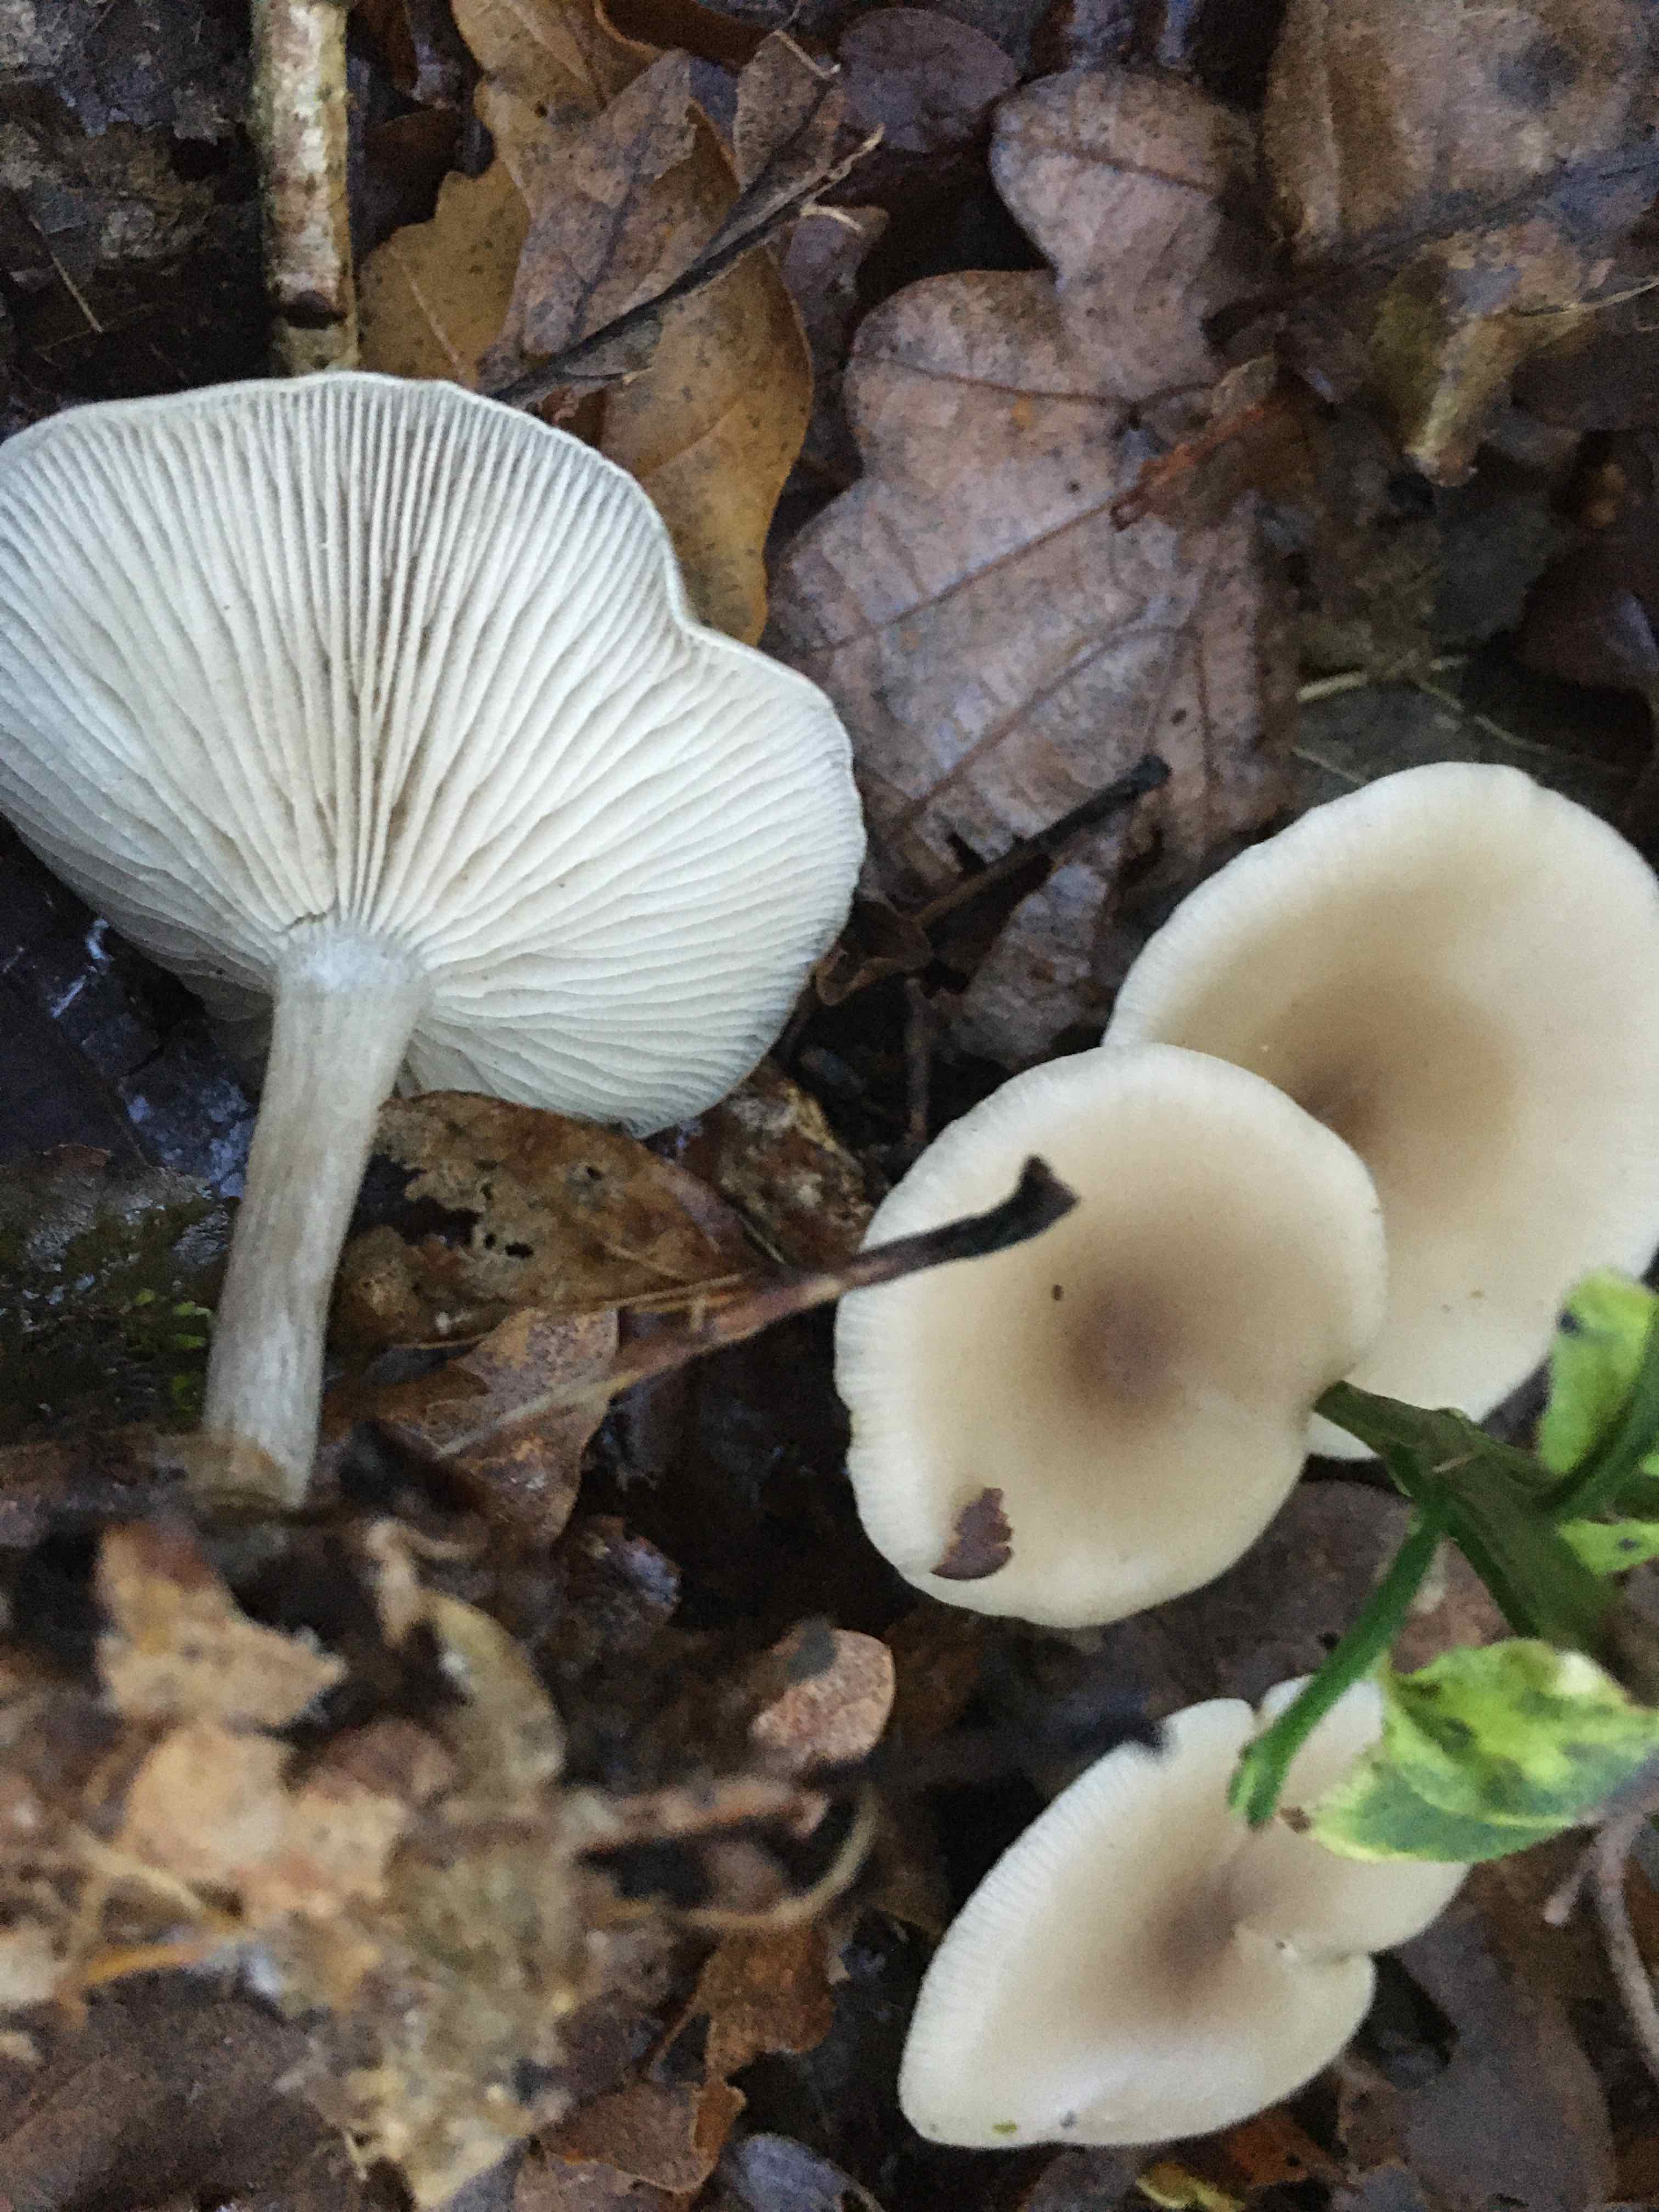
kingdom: Fungi
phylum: Basidiomycota
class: Agaricomycetes
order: Agaricales
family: Tricholomataceae
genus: Clitocybe
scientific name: Clitocybe
